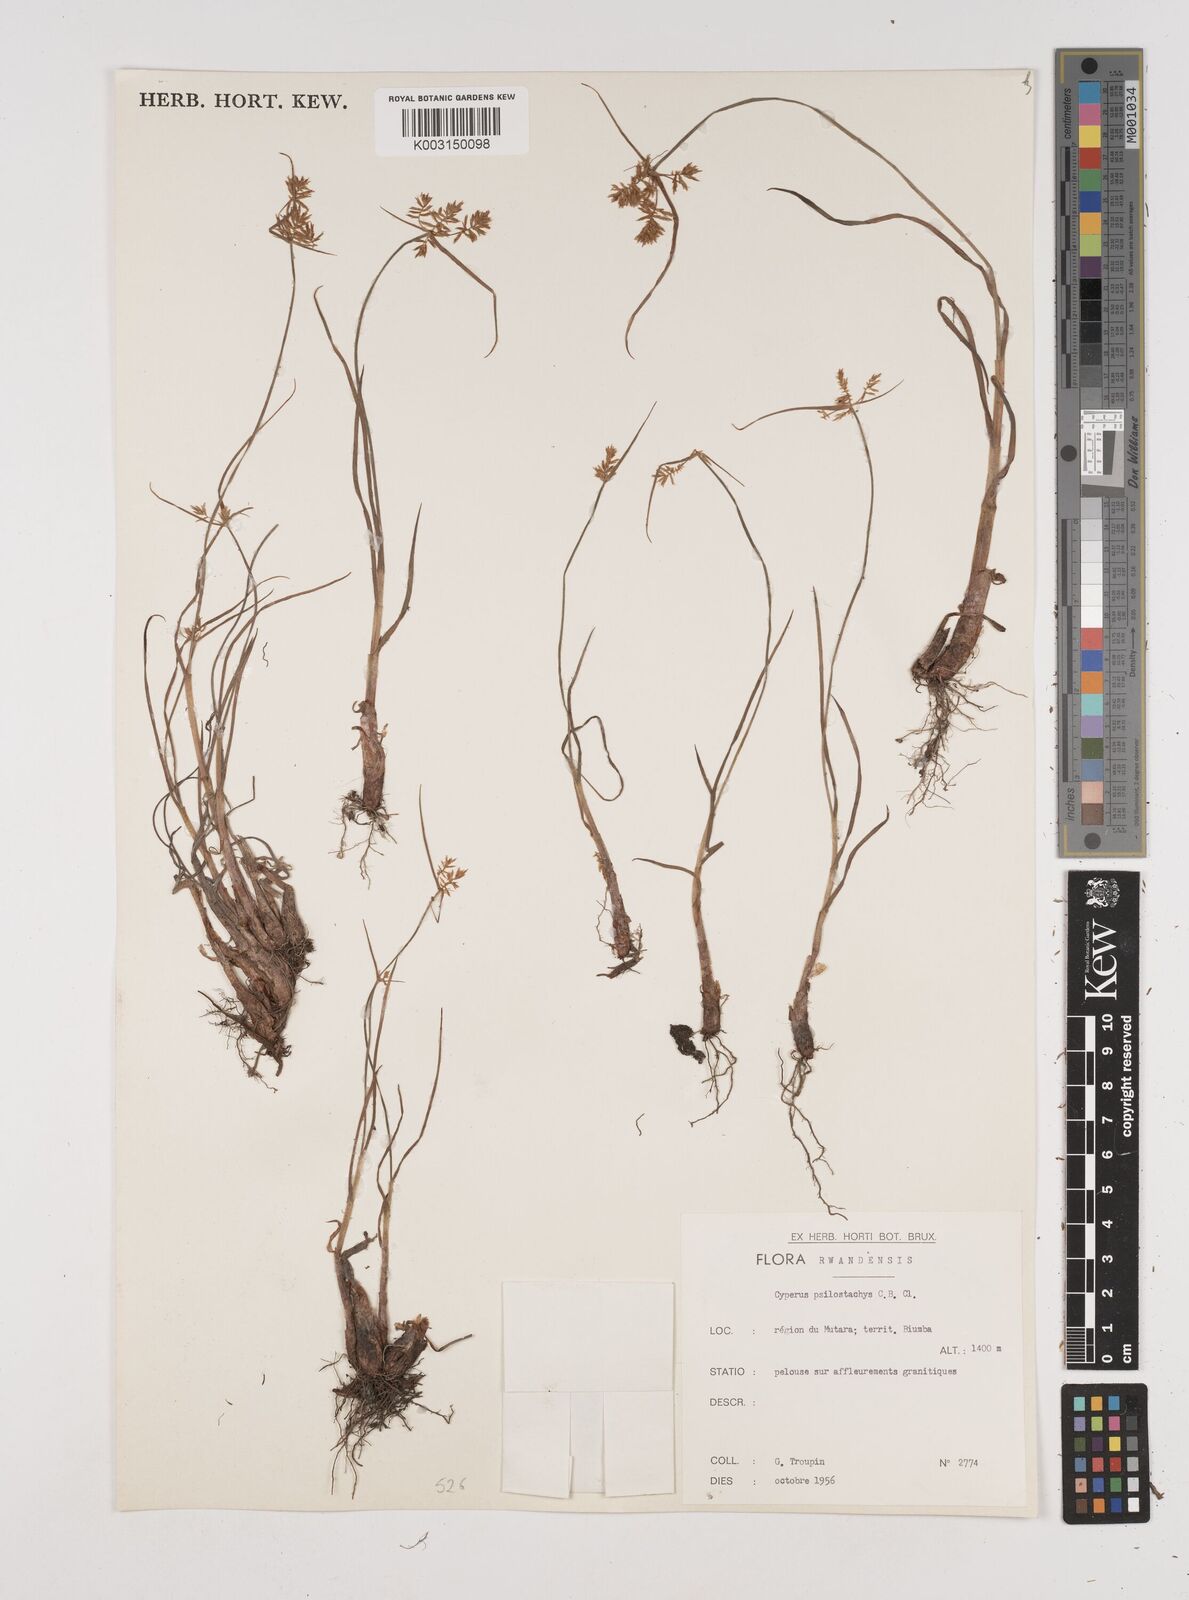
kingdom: Plantae
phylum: Tracheophyta
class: Liliopsida
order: Poales
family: Cyperaceae
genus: Cyperus
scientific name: Cyperus trigonellus
